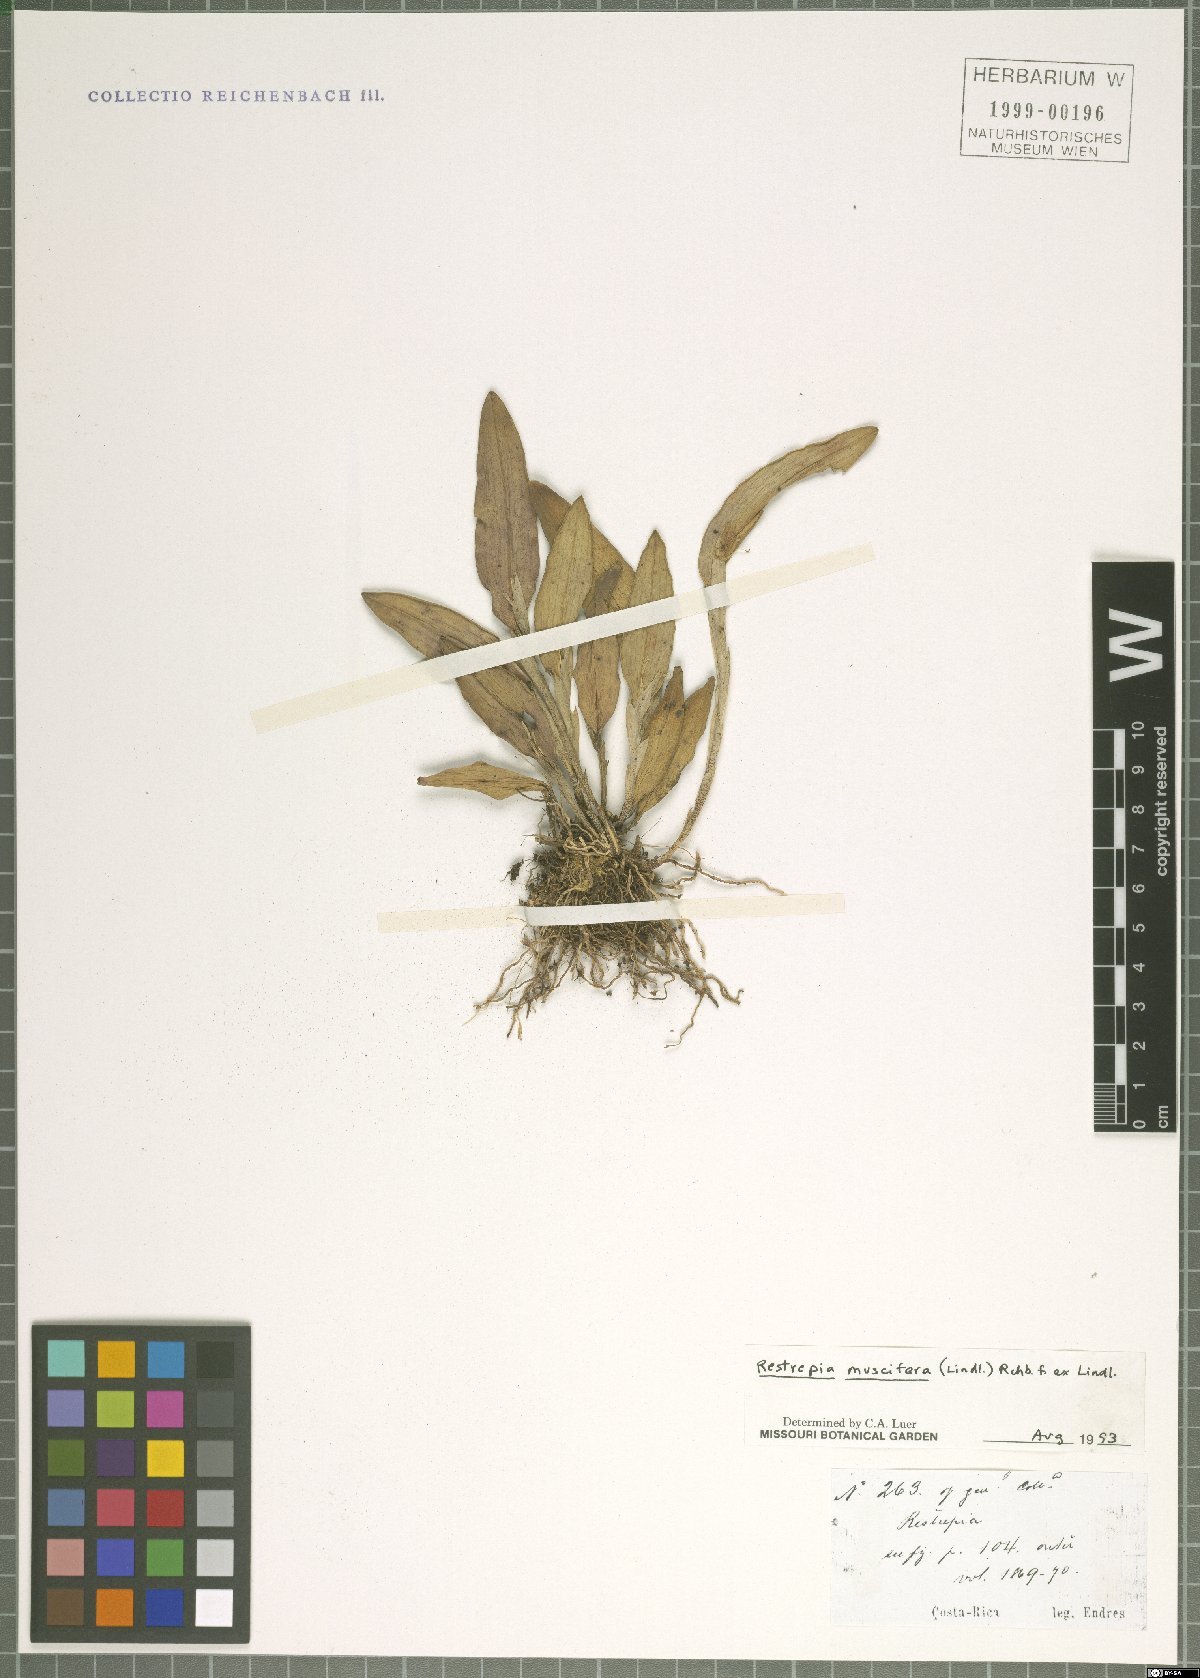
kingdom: Plantae
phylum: Tracheophyta
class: Liliopsida
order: Asparagales
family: Orchidaceae
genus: Restrepia
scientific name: Restrepia muscifera
